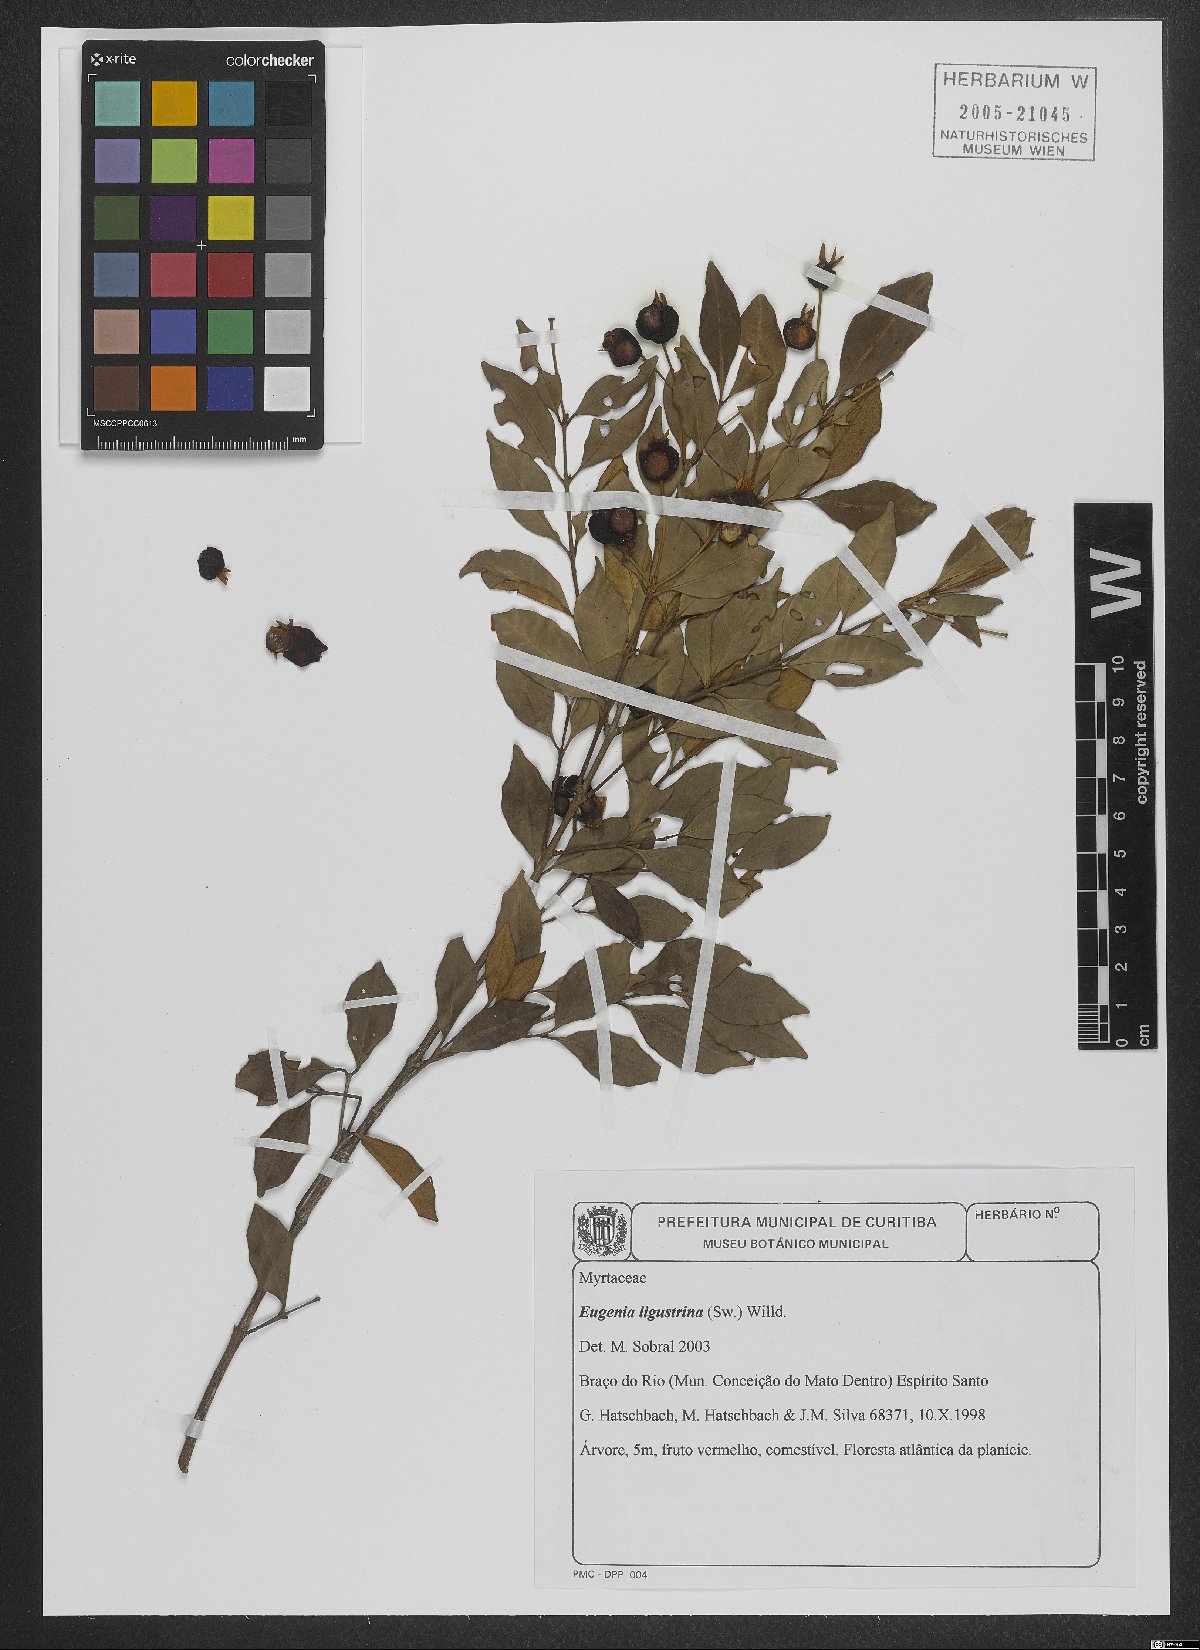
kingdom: Plantae
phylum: Tracheophyta
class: Magnoliopsida
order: Myrtales
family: Myrtaceae
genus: Eugenia
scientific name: Eugenia ligustrina
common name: Privet stopper
